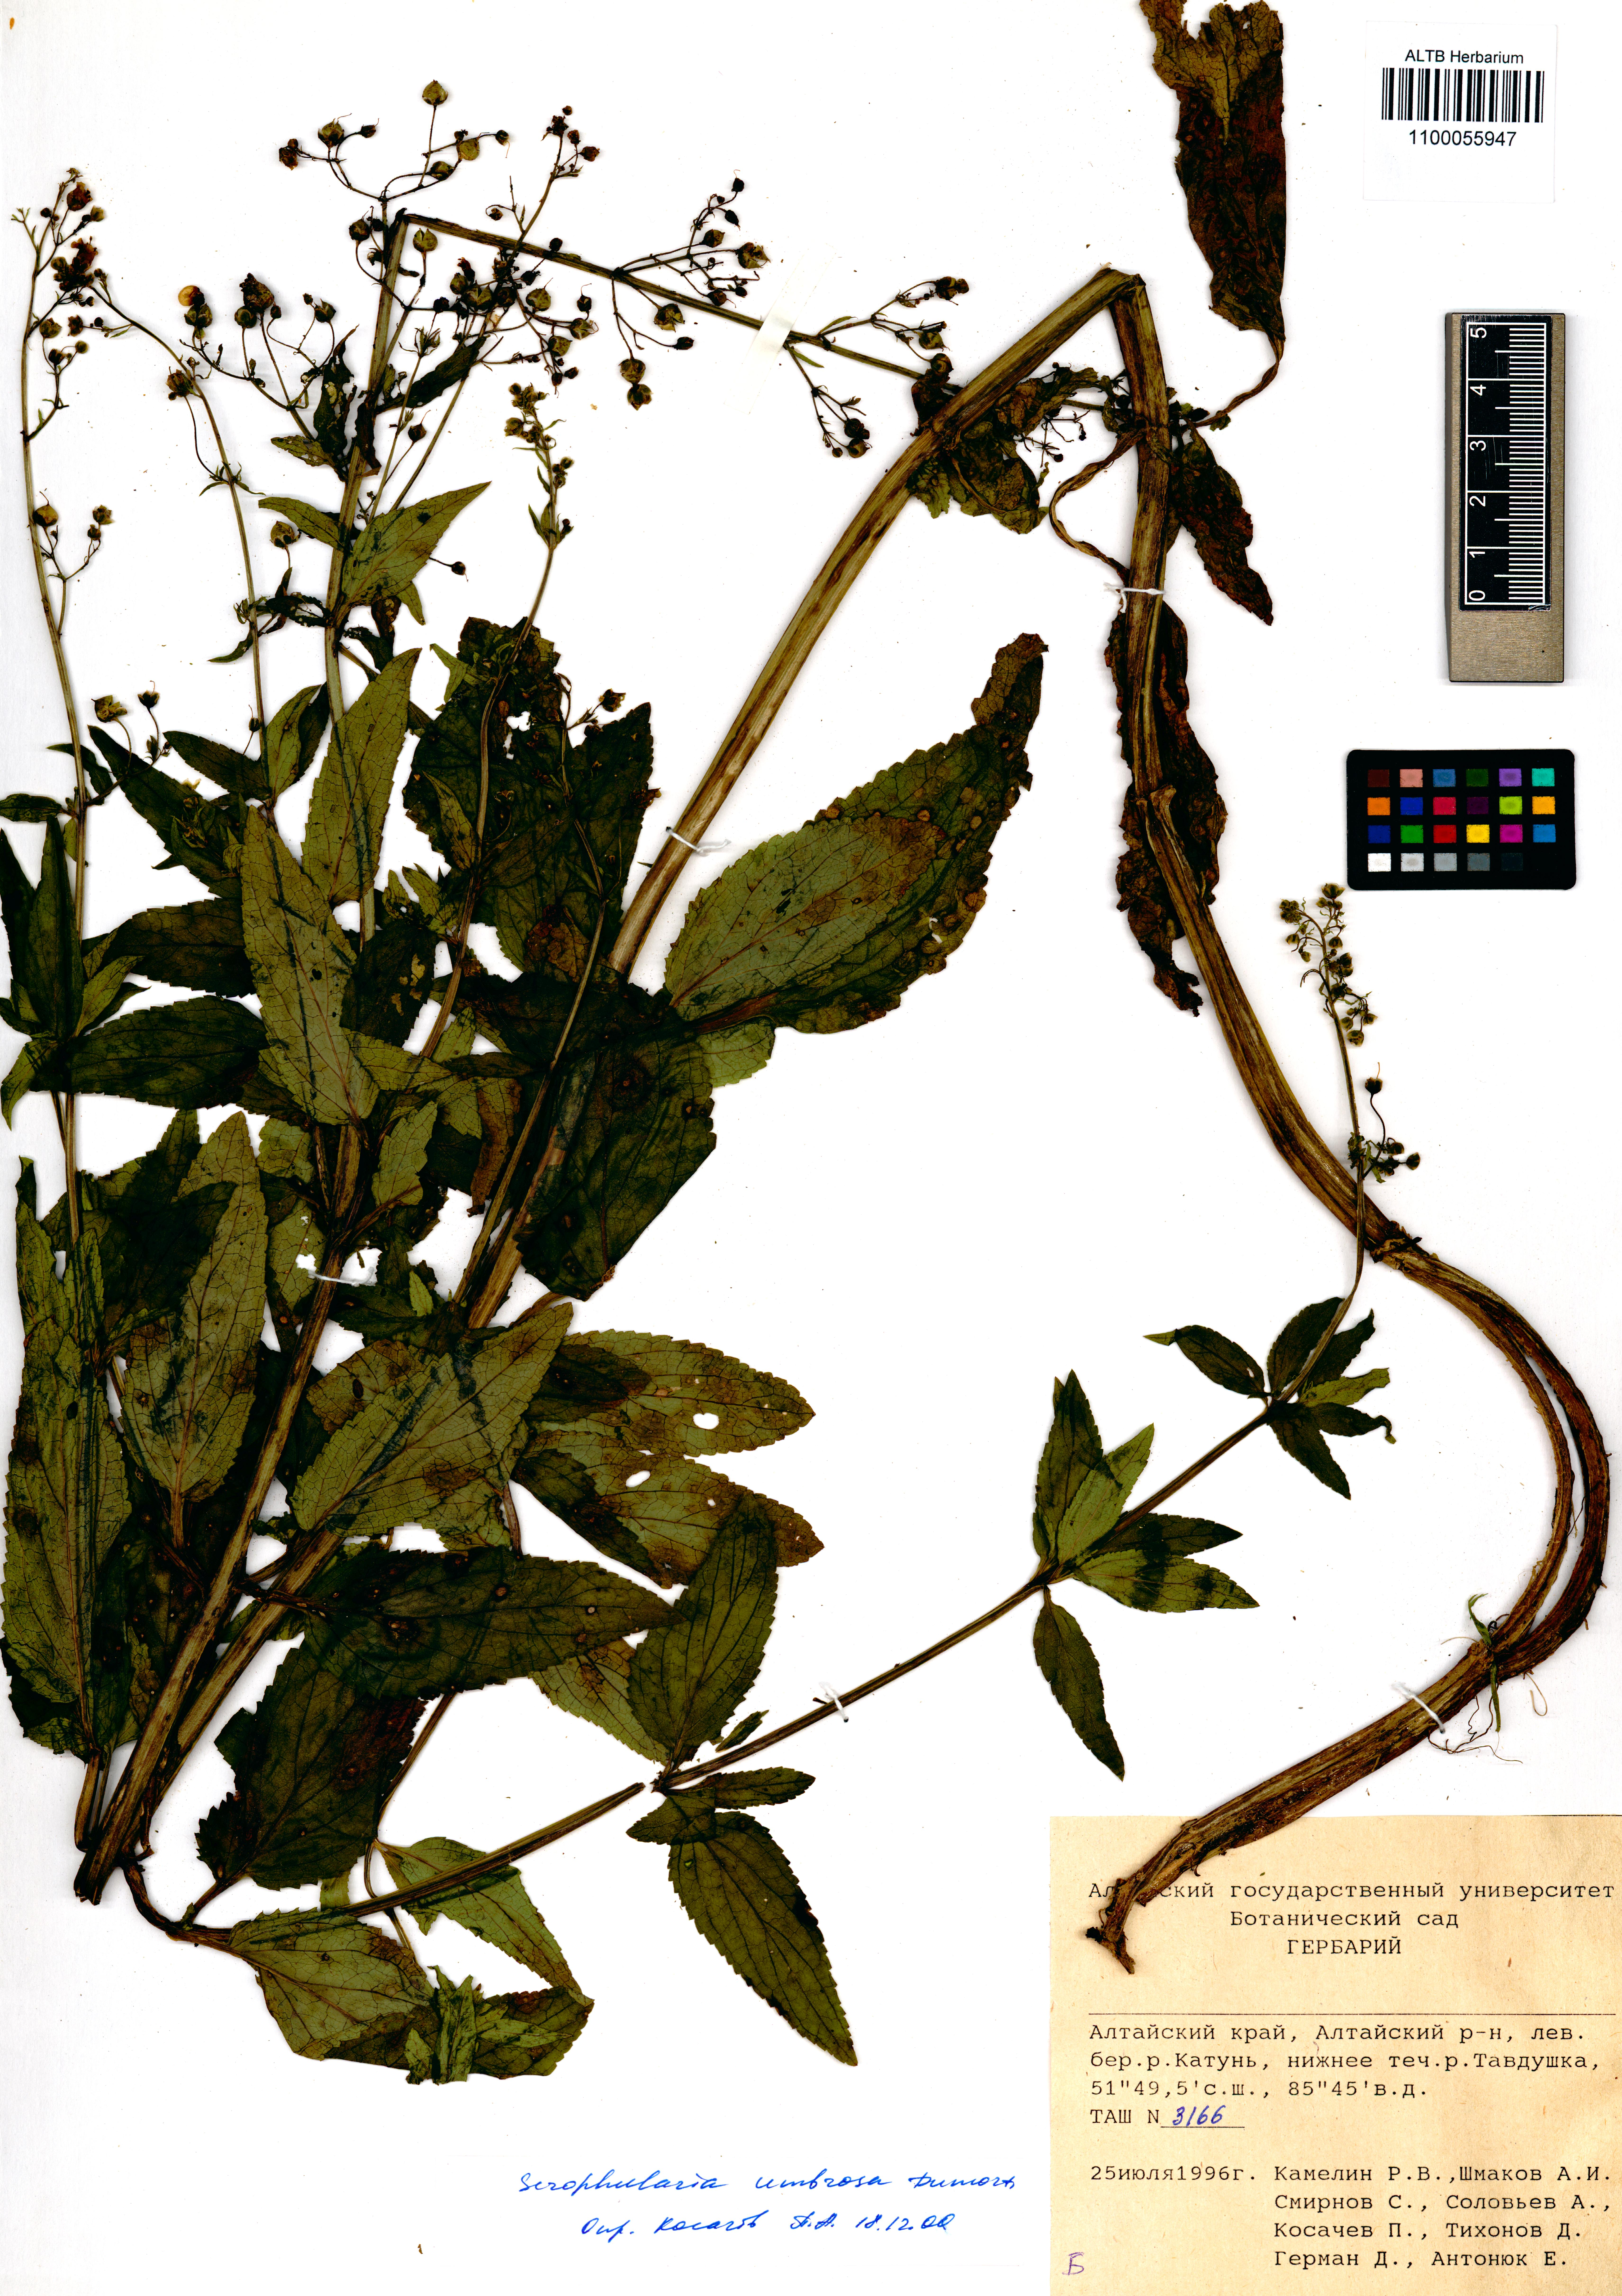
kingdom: Plantae
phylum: Tracheophyta
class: Magnoliopsida
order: Lamiales
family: Scrophulariaceae
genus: Scrophularia
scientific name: Scrophularia umbrosa
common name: Green figwort
